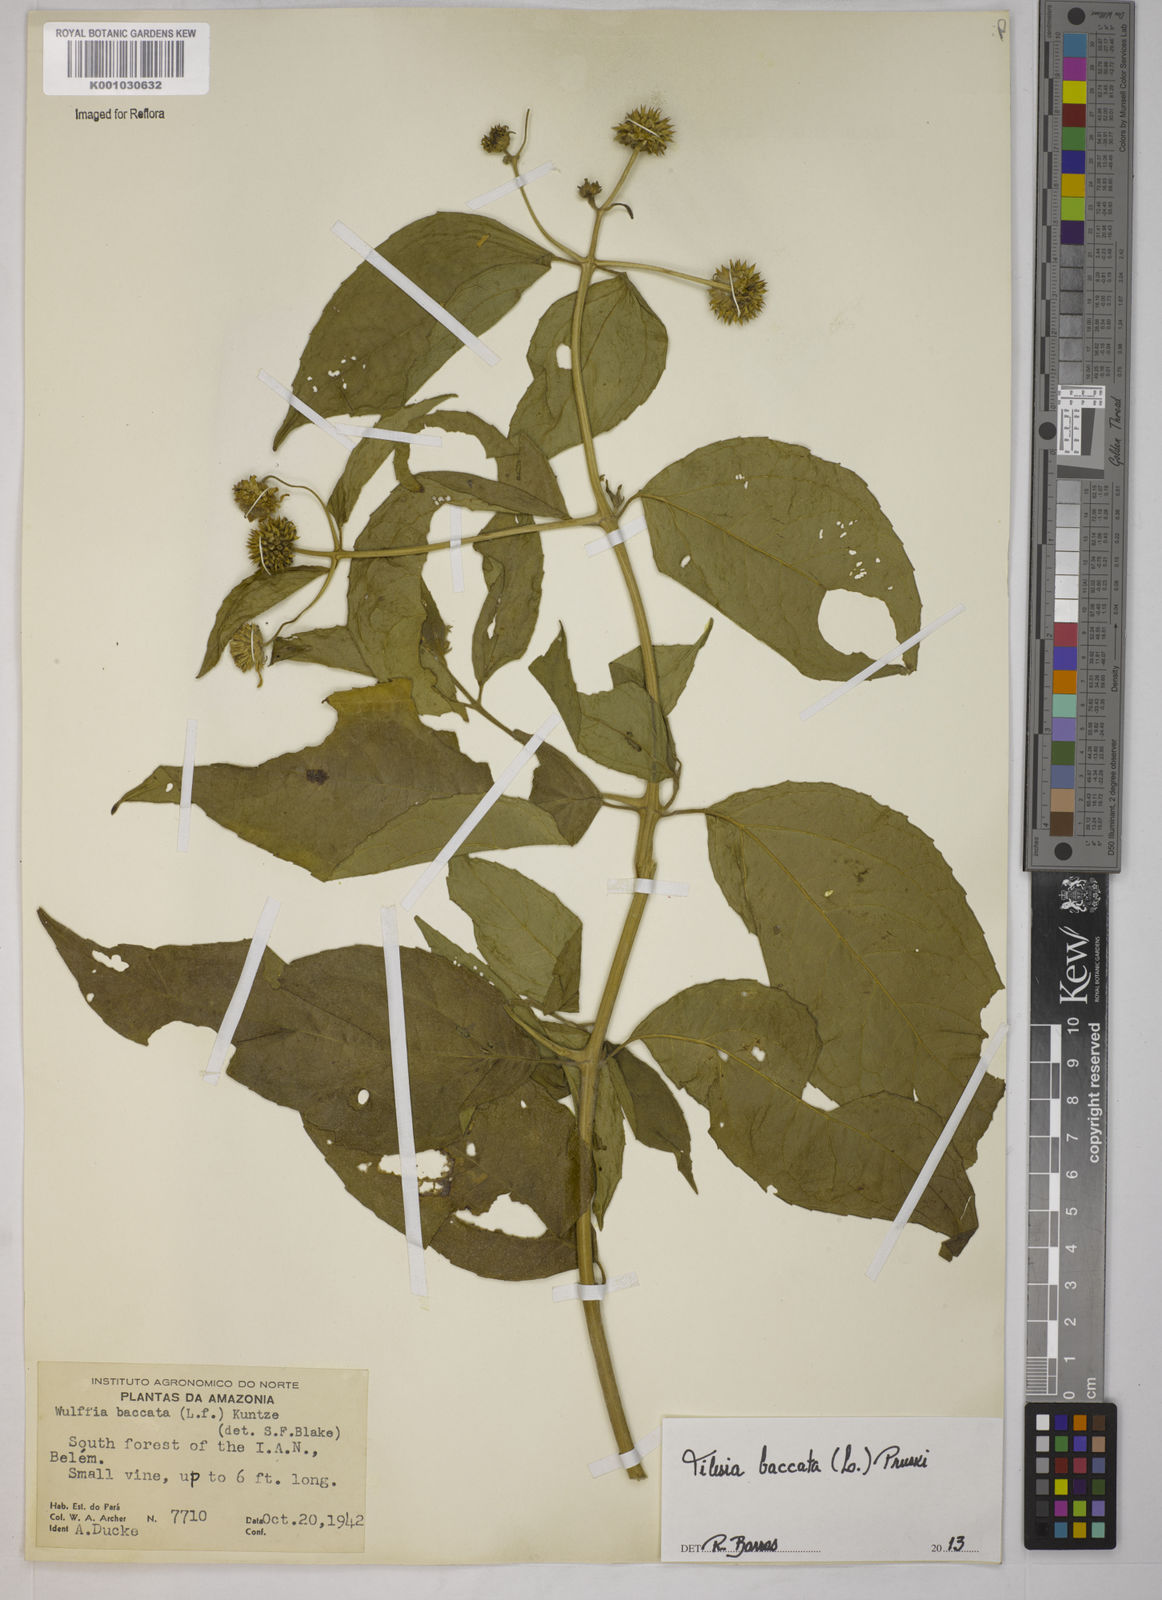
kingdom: Plantae
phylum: Tracheophyta
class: Magnoliopsida
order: Asterales
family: Asteraceae
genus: Tilesia
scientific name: Tilesia baccata
